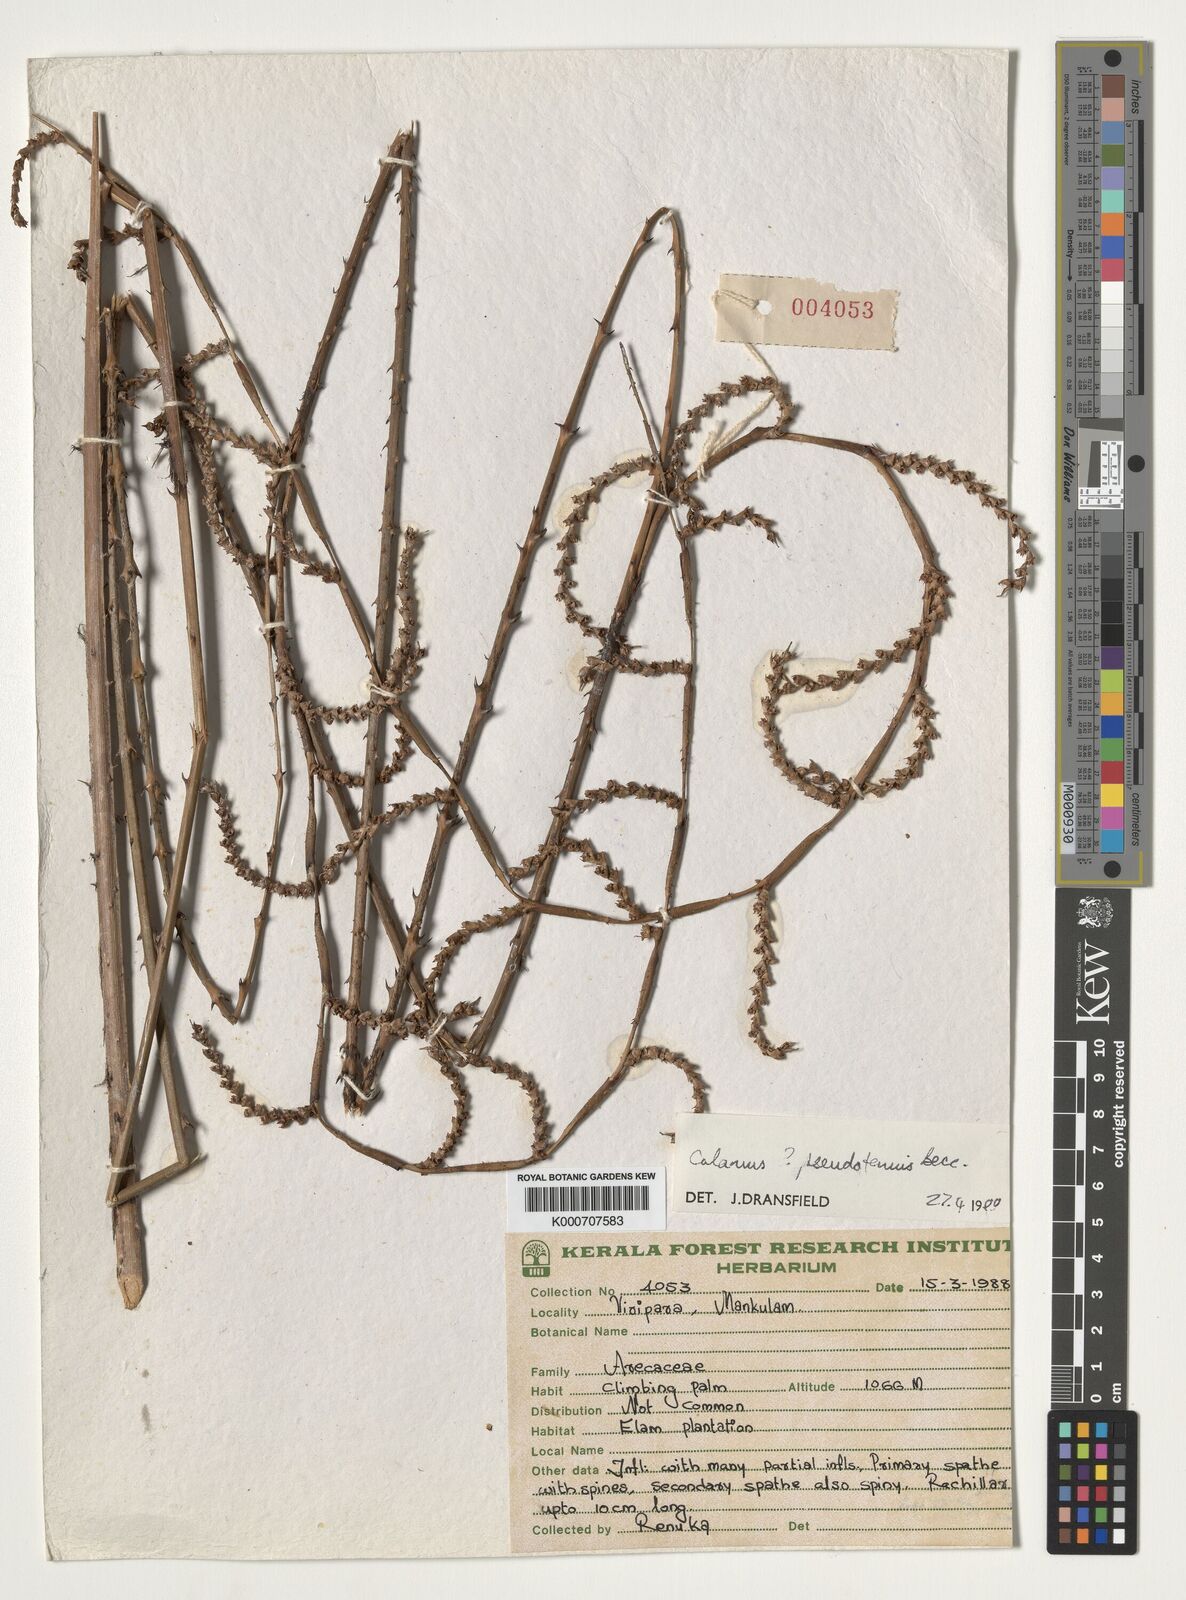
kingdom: Plantae
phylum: Tracheophyta
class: Liliopsida
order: Arecales
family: Arecaceae
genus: Calamus
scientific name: Calamus pseudotenuis
